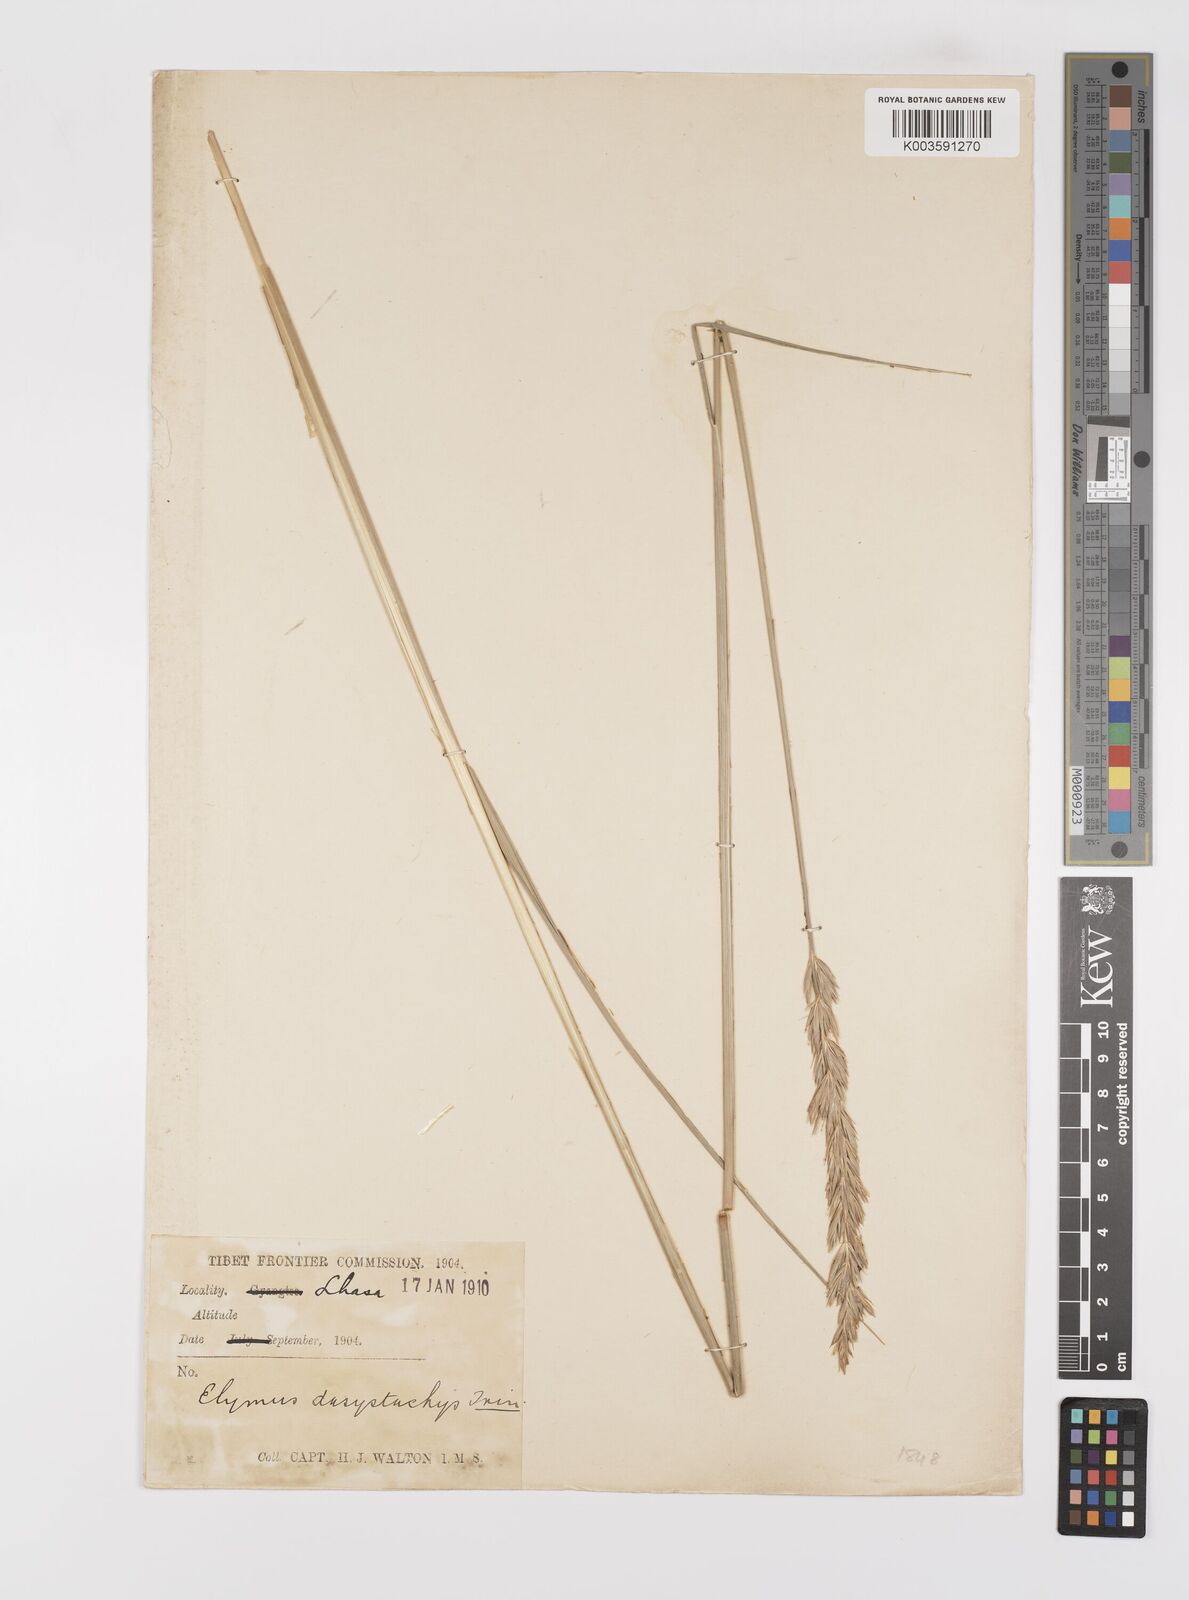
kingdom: Plantae
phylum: Tracheophyta
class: Liliopsida
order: Poales
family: Poaceae
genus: Leymus
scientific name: Leymus secalinus
